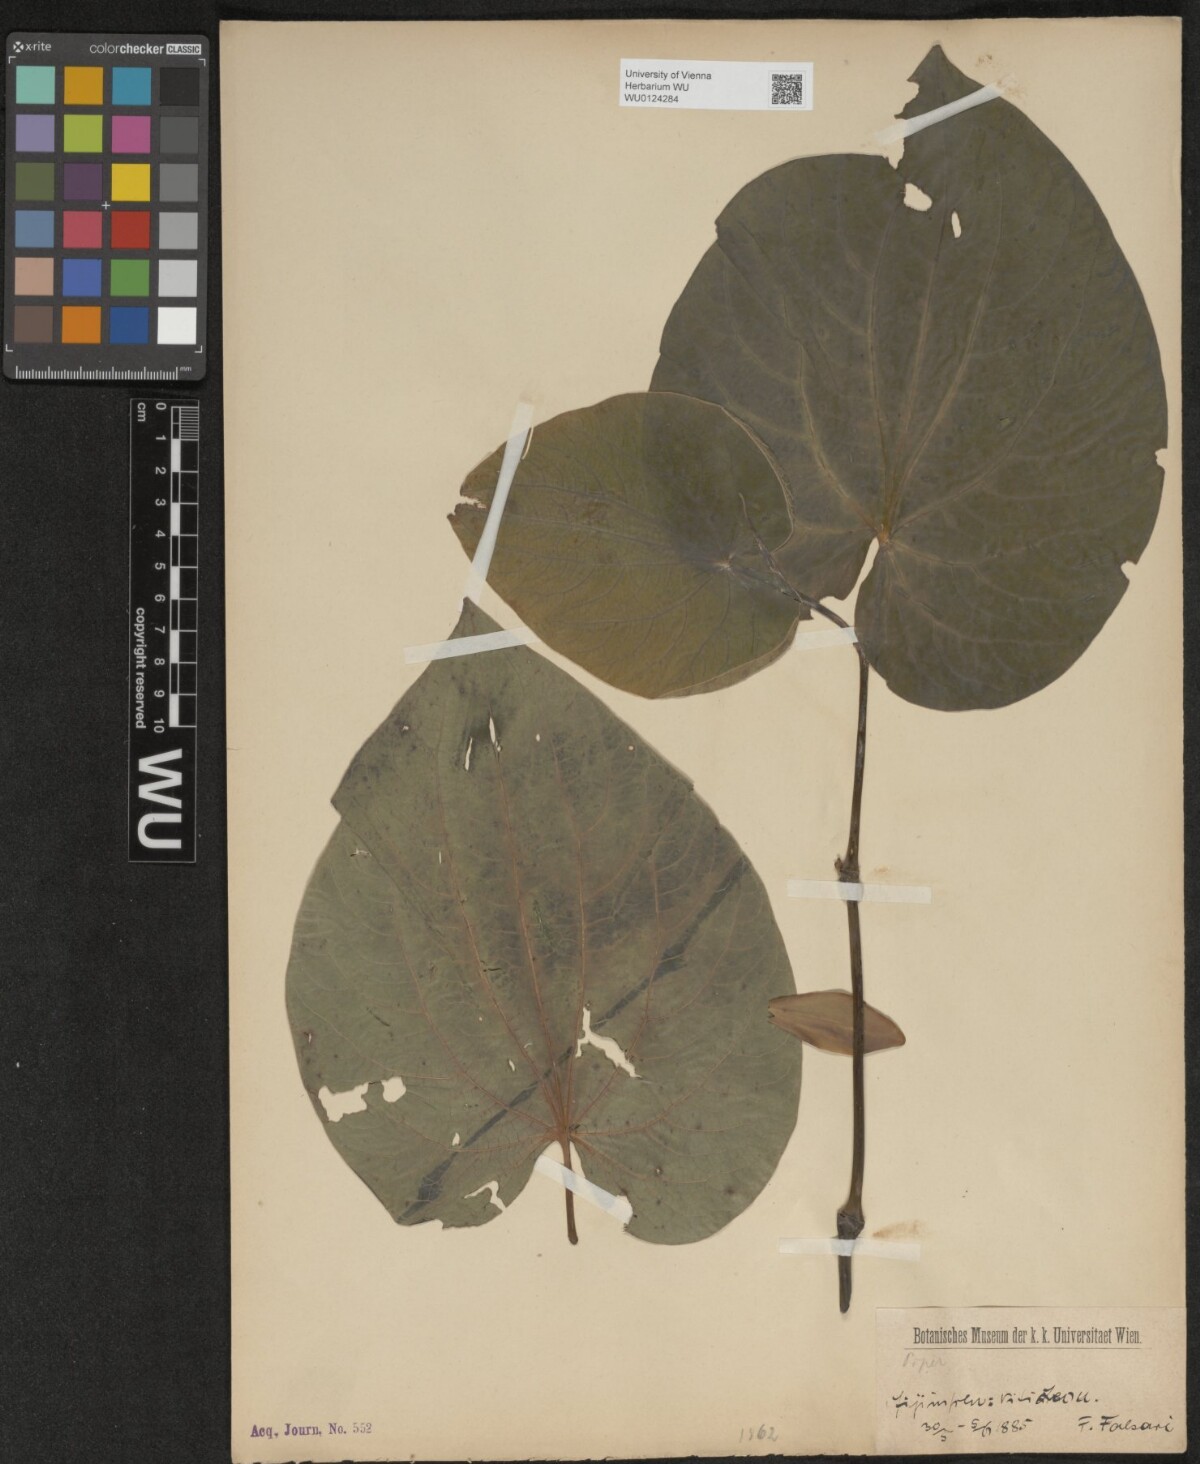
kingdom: Plantae
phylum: Tracheophyta
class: Magnoliopsida
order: Piperales
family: Piperaceae
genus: Piper
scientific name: Piper
